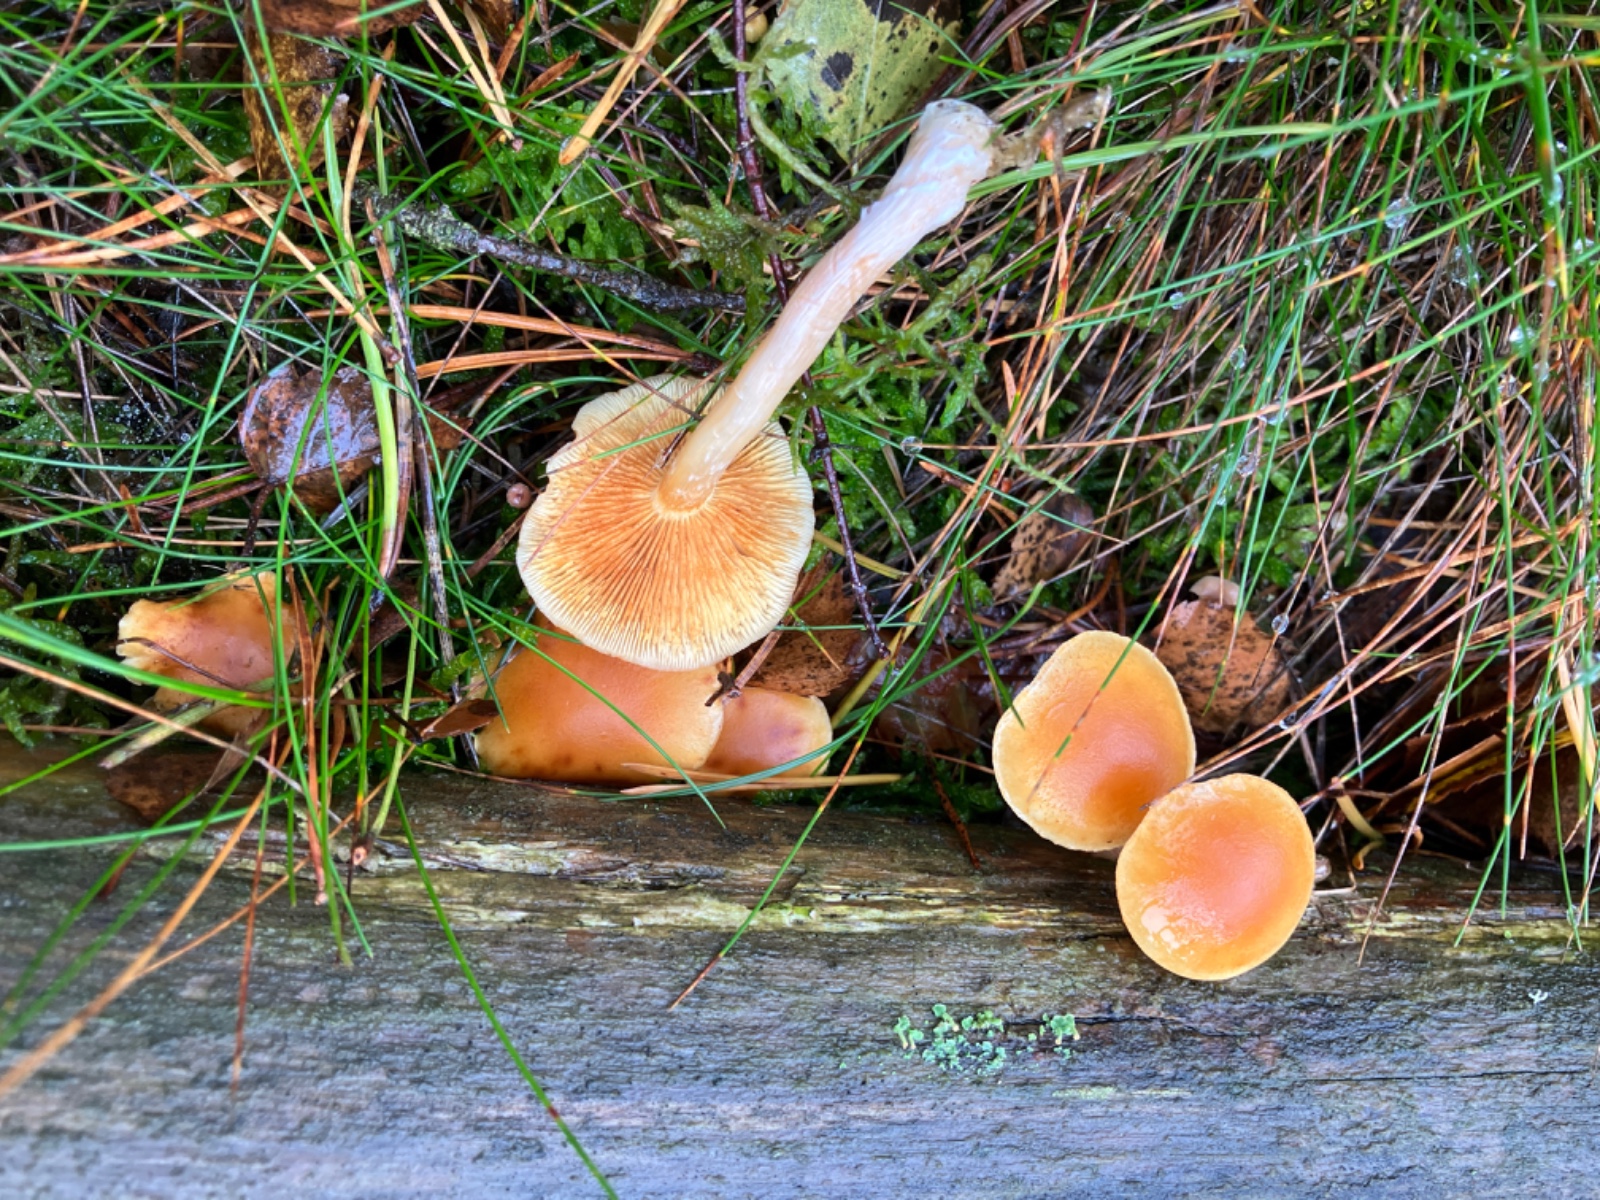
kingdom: Fungi
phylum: Basidiomycota
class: Agaricomycetes
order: Agaricales
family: Hymenogastraceae
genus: Gymnopilus
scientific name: Gymnopilus penetrans
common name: plettet flammehat
